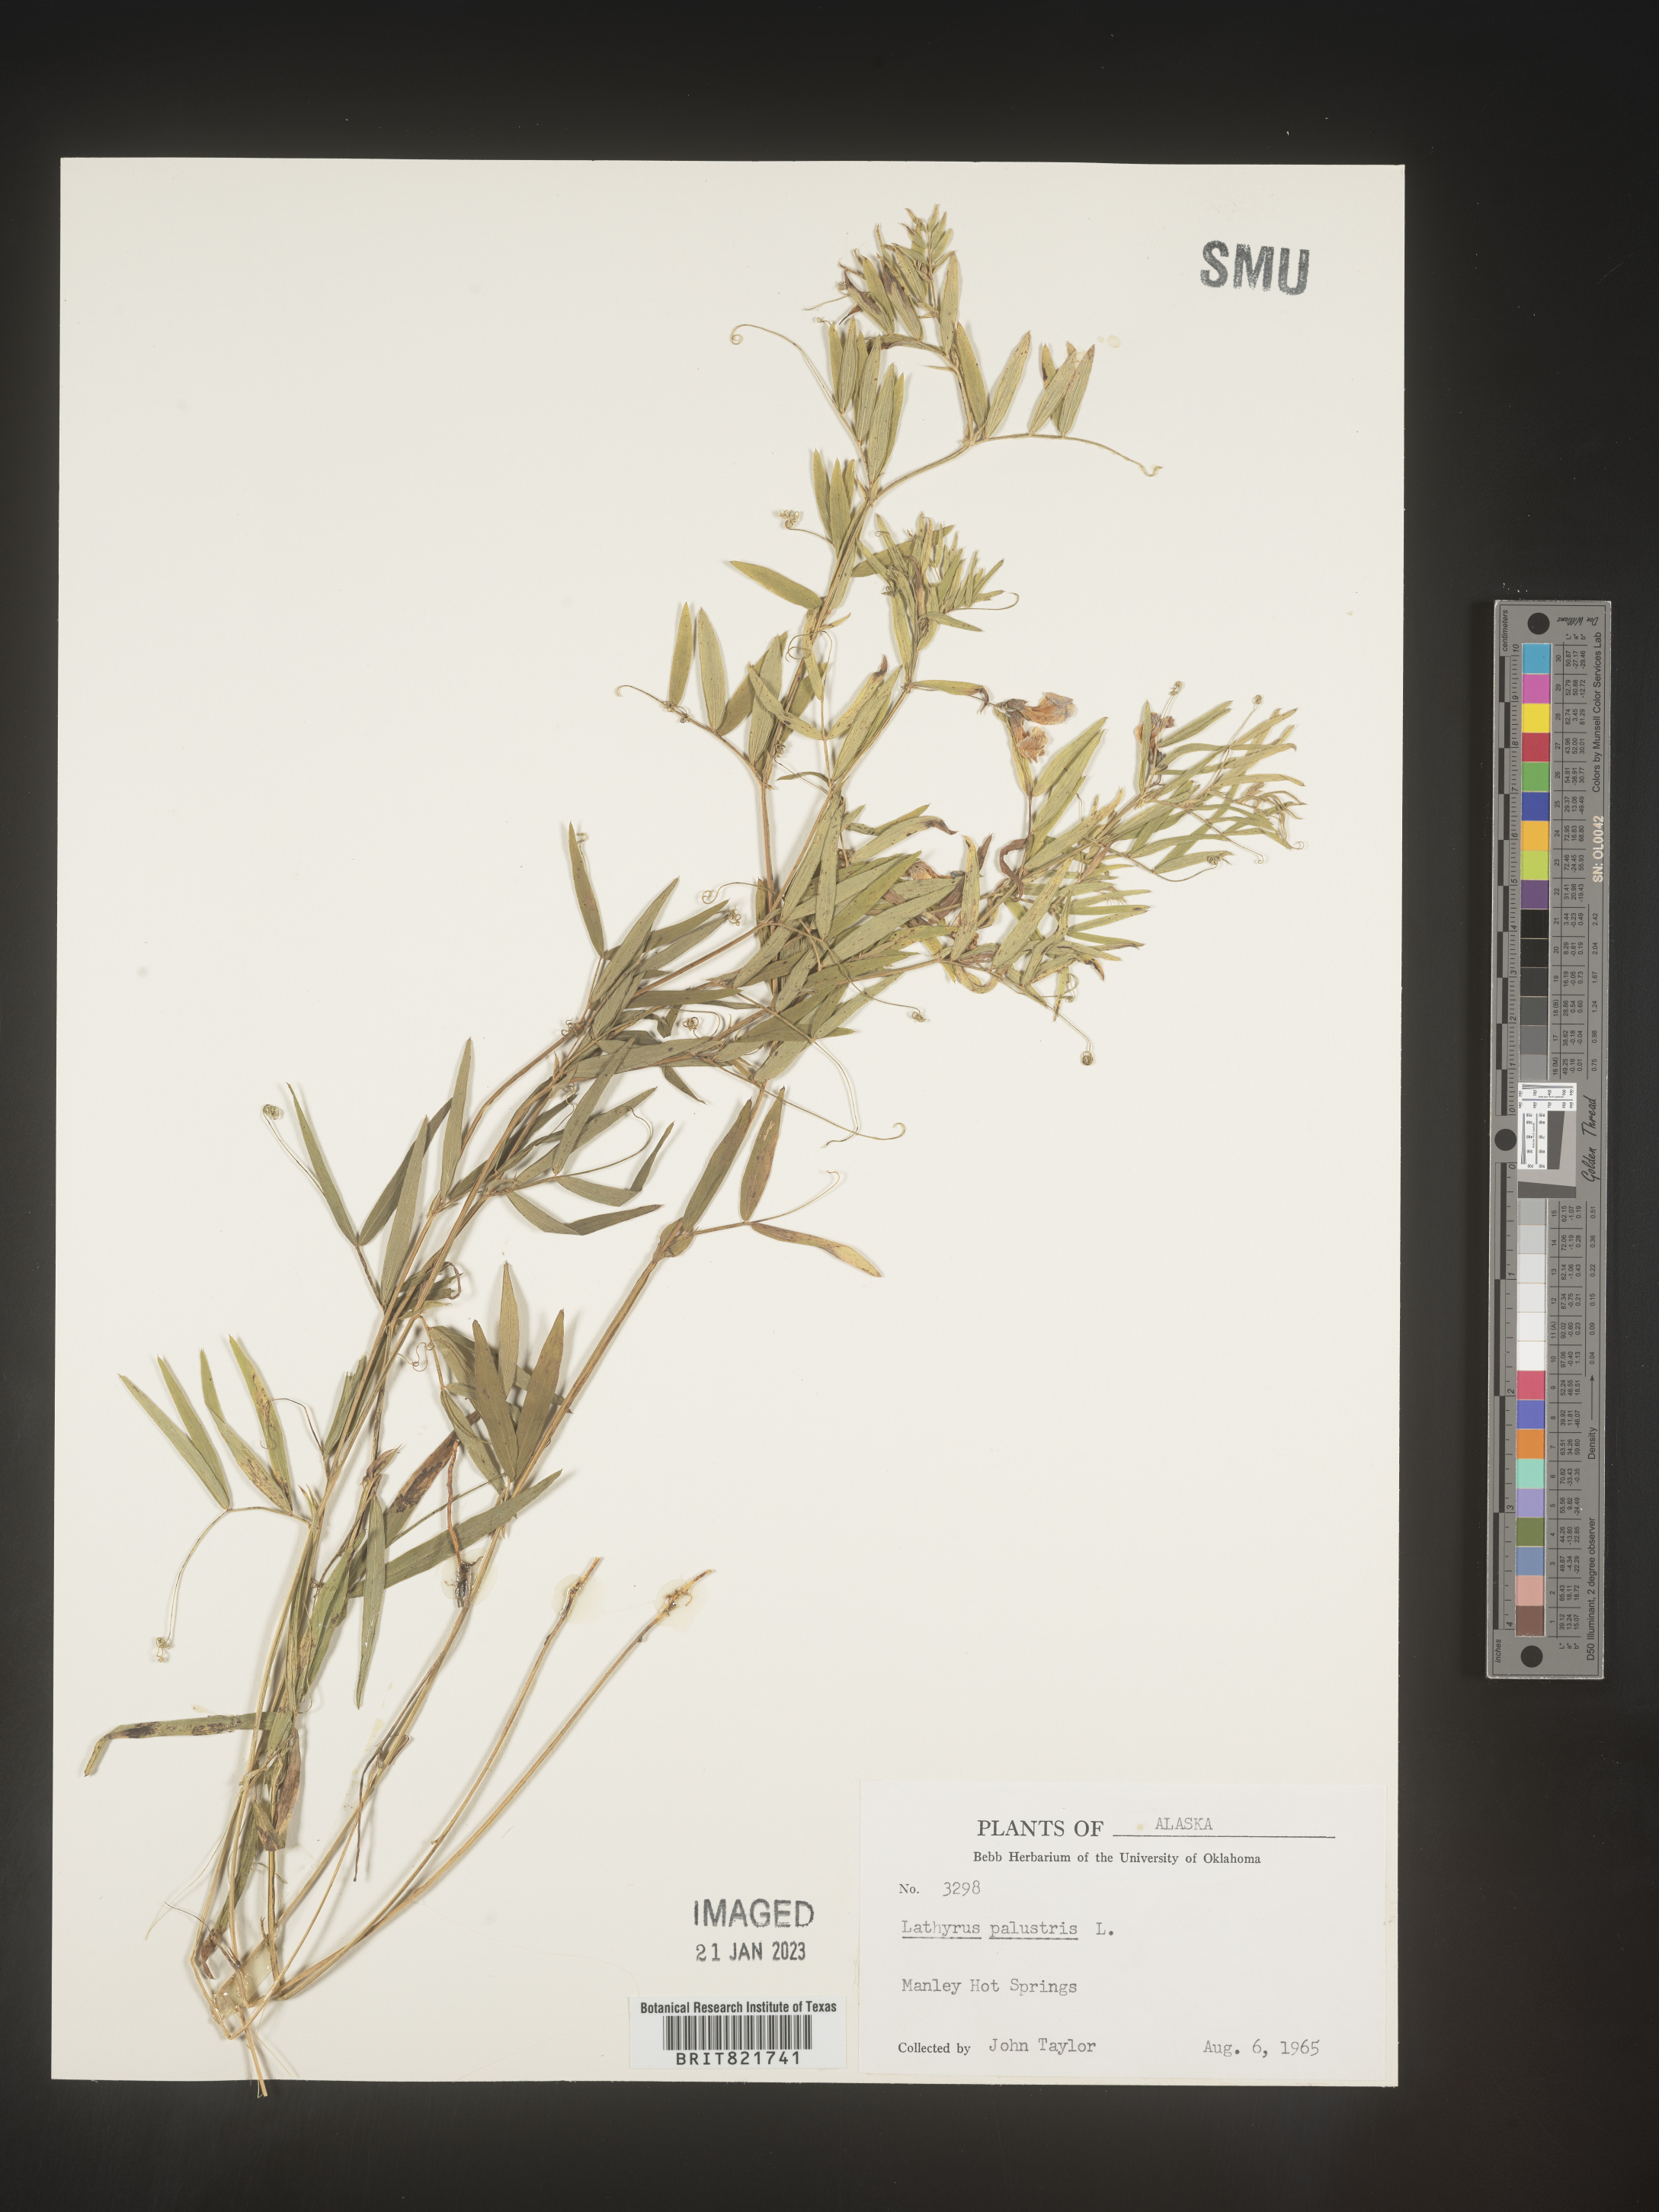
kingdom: Plantae
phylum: Tracheophyta
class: Magnoliopsida
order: Fabales
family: Fabaceae
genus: Lathyrus
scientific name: Lathyrus palustris
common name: Marsh pea
